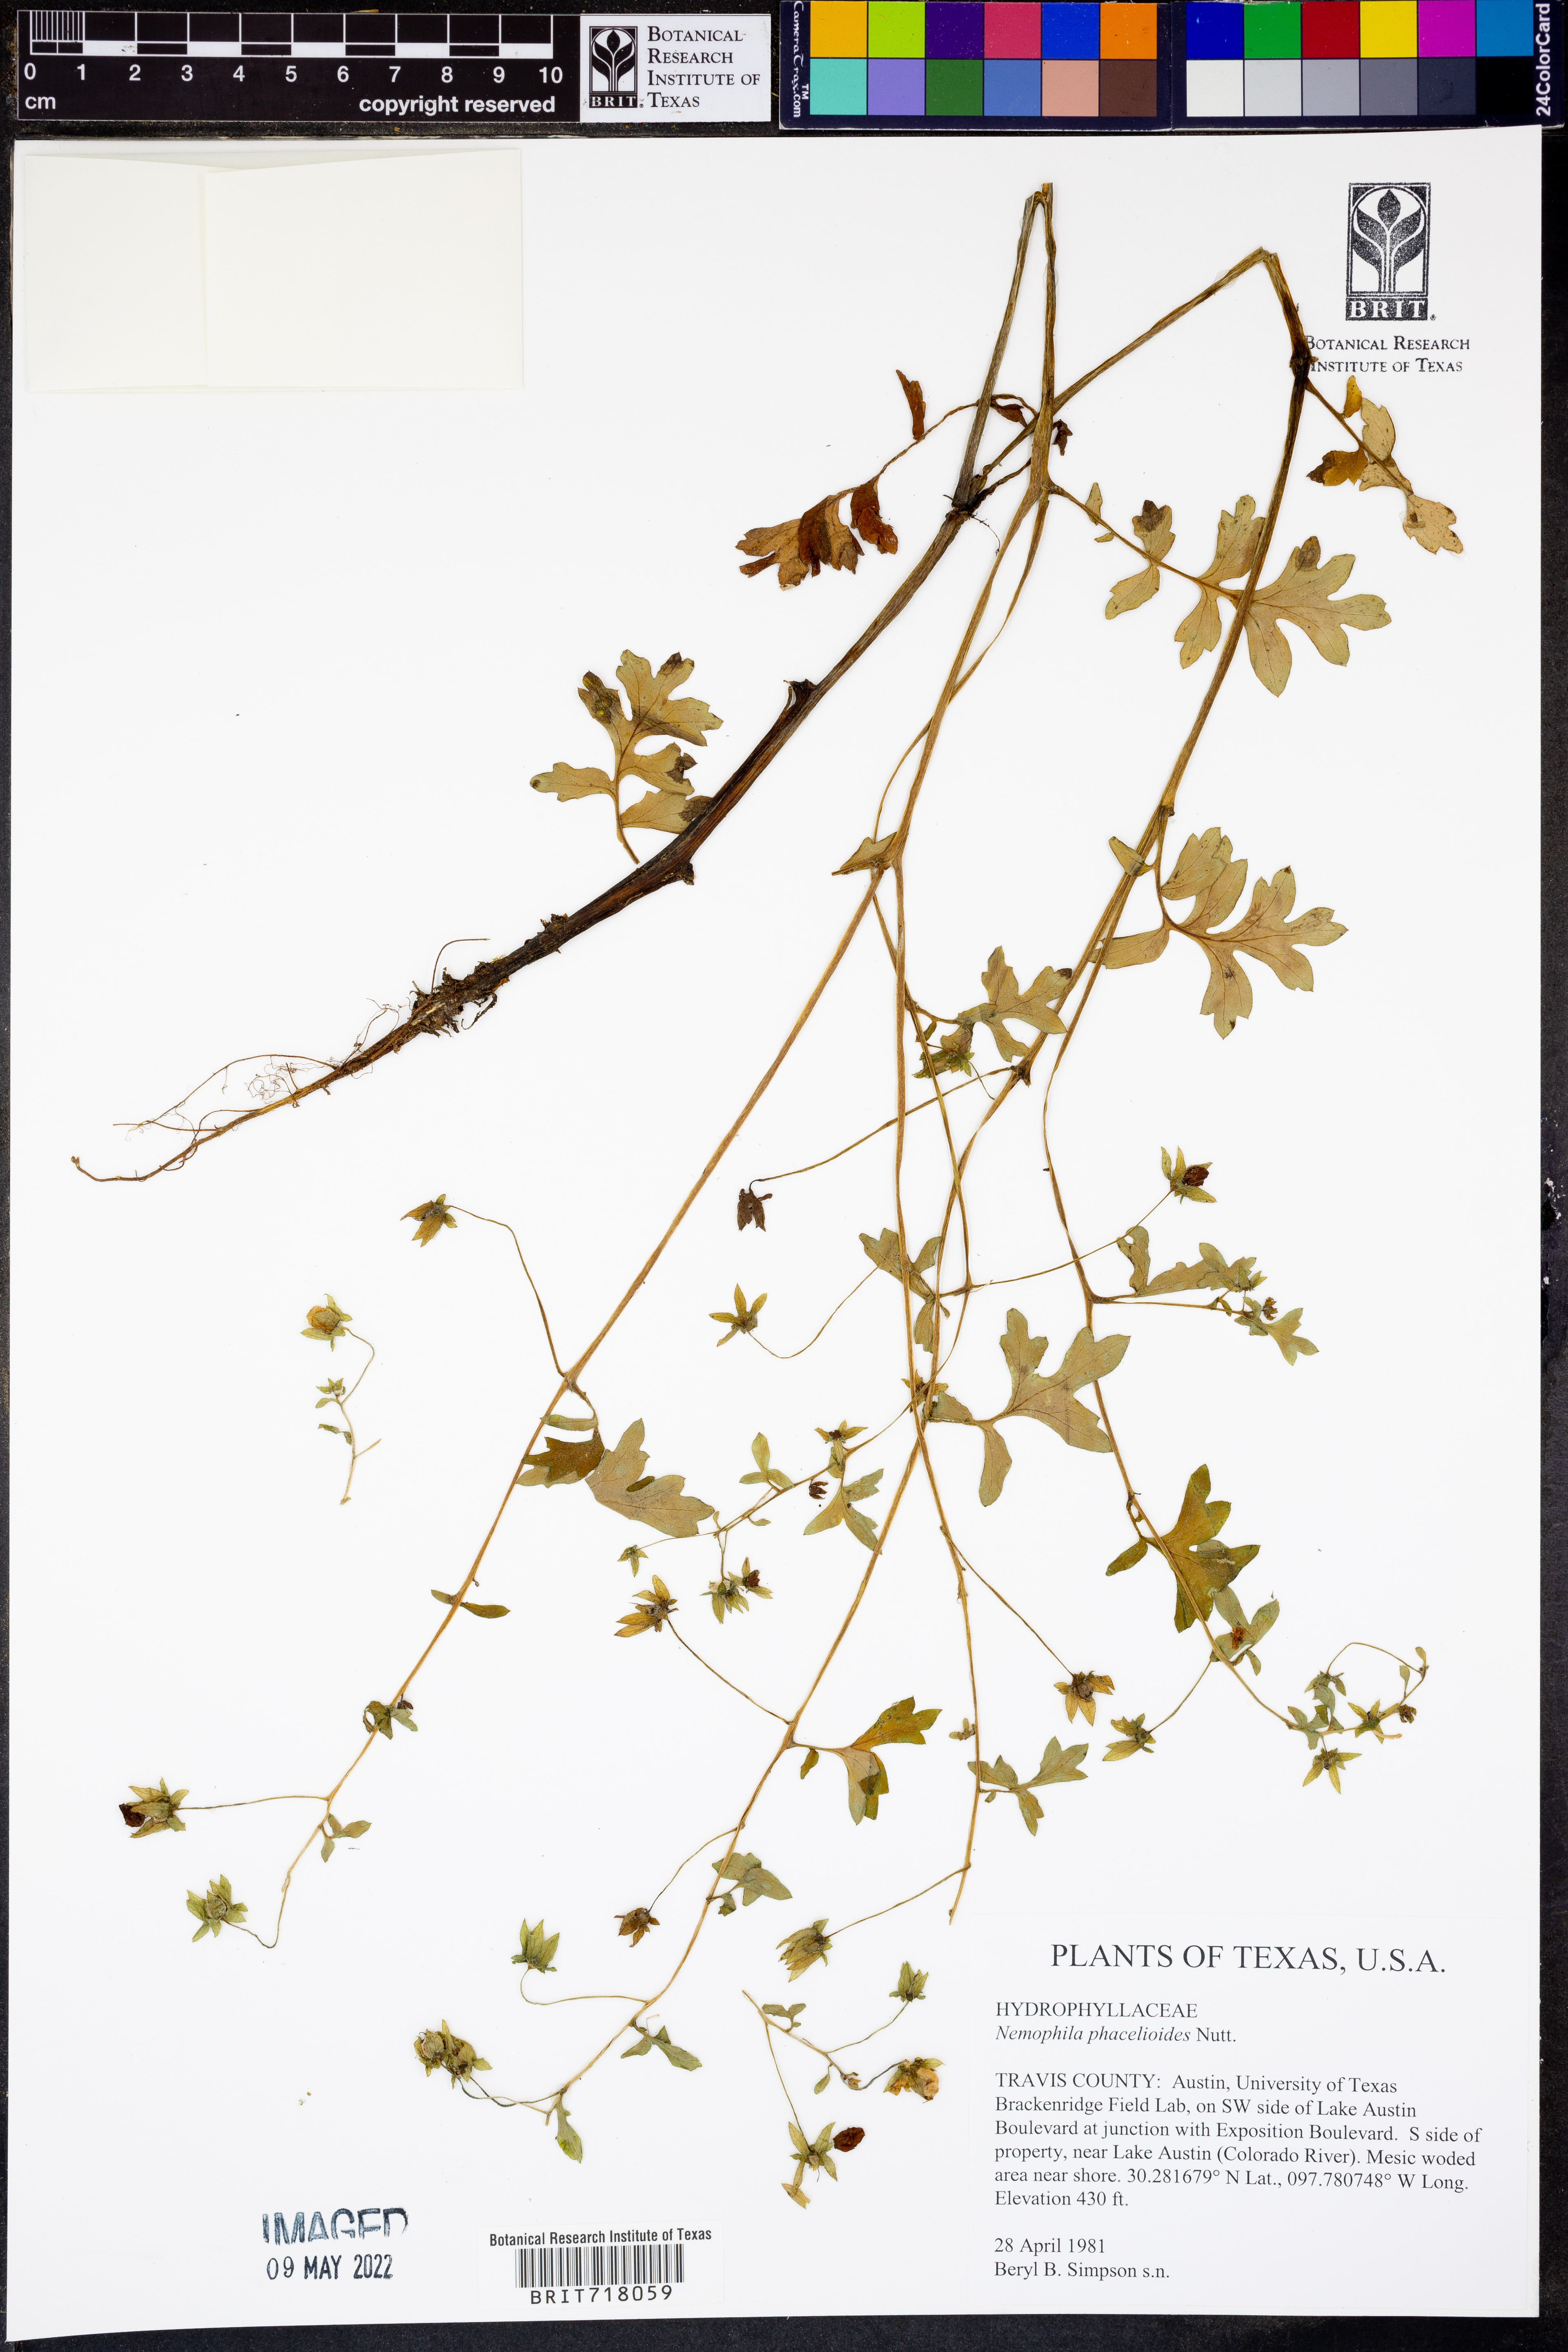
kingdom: Plantae
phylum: Tracheophyta
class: Magnoliopsida
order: Boraginales
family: Hydrophyllaceae
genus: Nemophila
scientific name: Nemophila phacelioides
